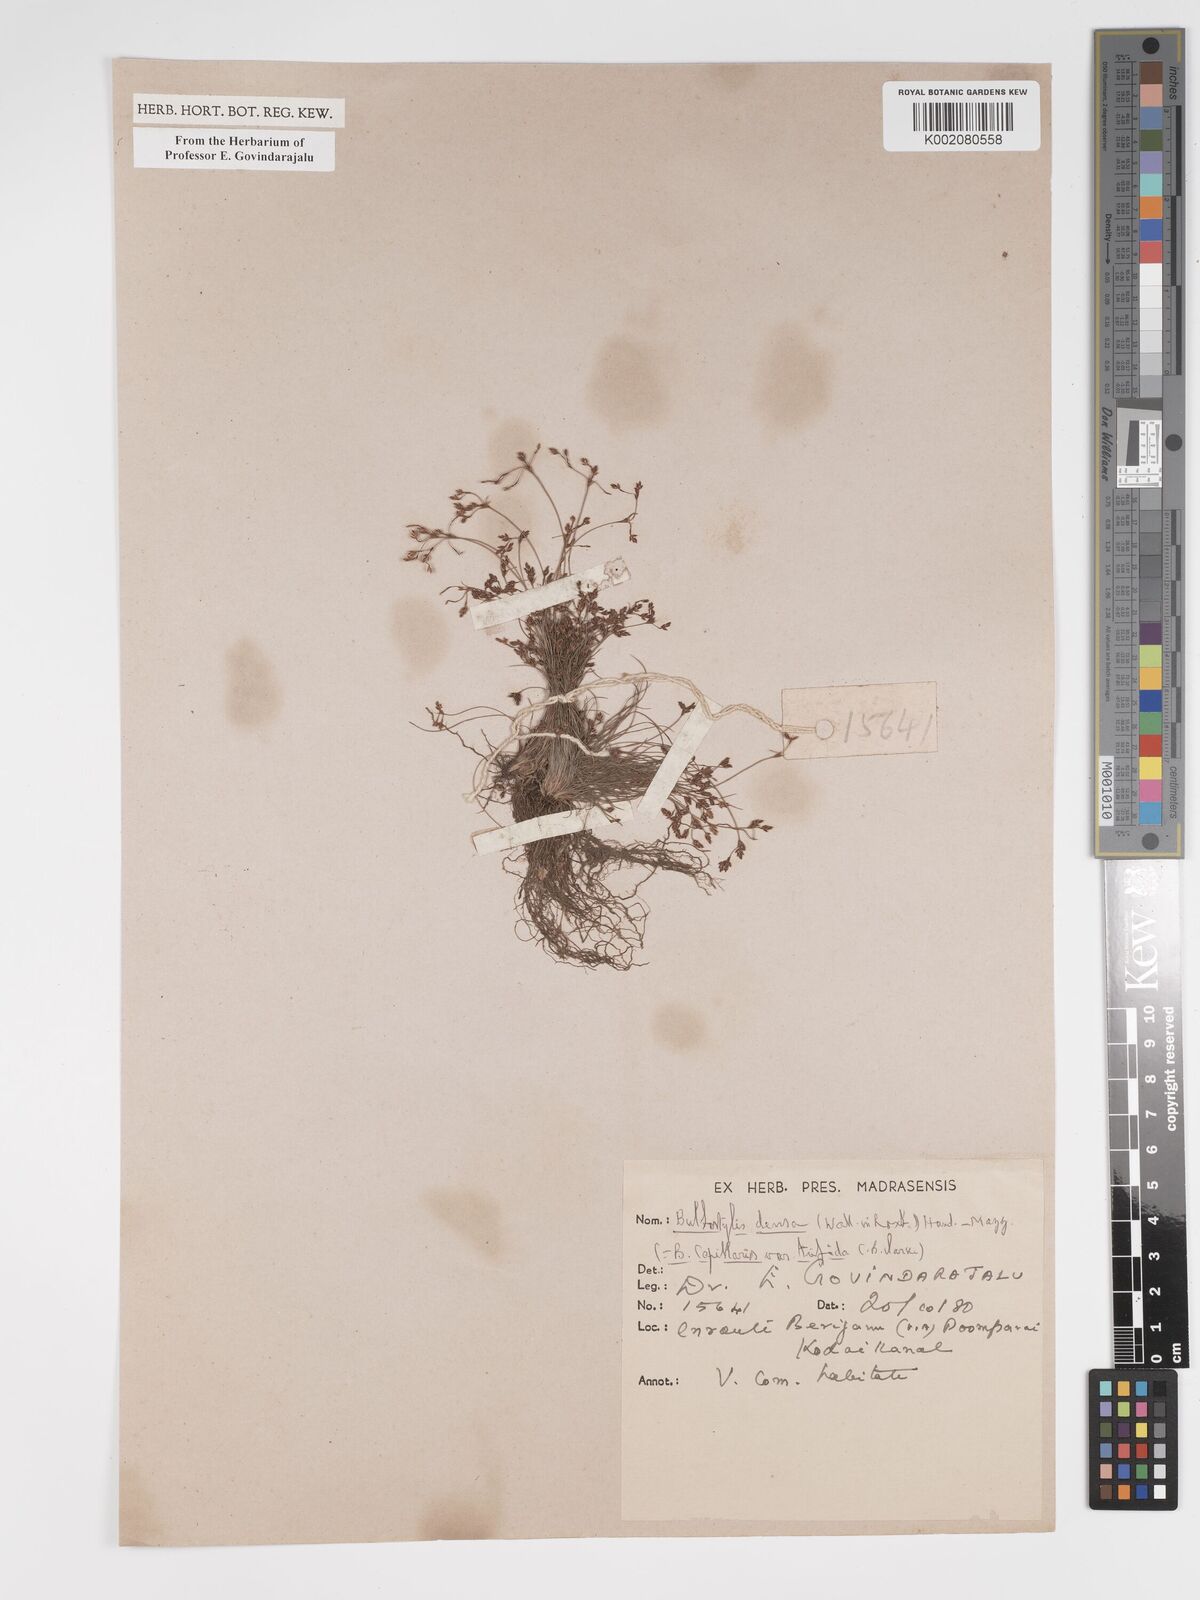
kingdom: Plantae
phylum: Tracheophyta
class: Liliopsida
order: Poales
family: Cyperaceae
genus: Bulbostylis
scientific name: Bulbostylis densa
